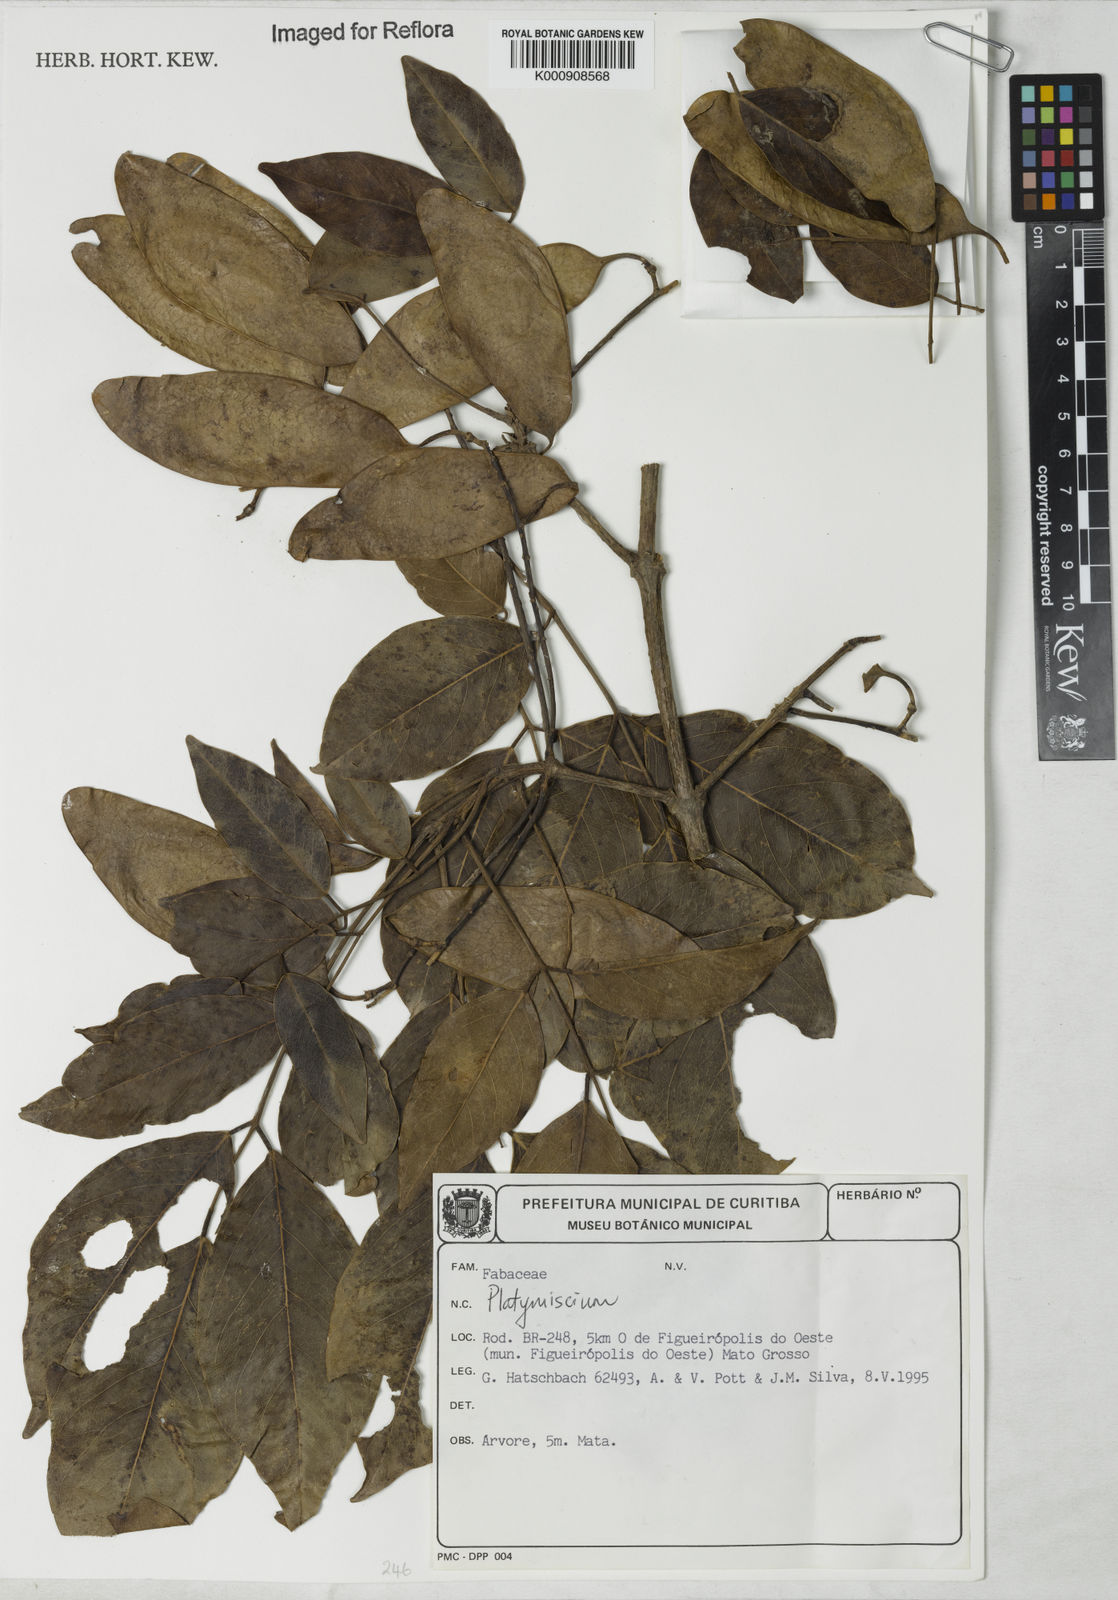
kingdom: Plantae
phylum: Tracheophyta
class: Magnoliopsida
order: Fabales
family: Fabaceae
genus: Platymiscium
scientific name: Platymiscium
